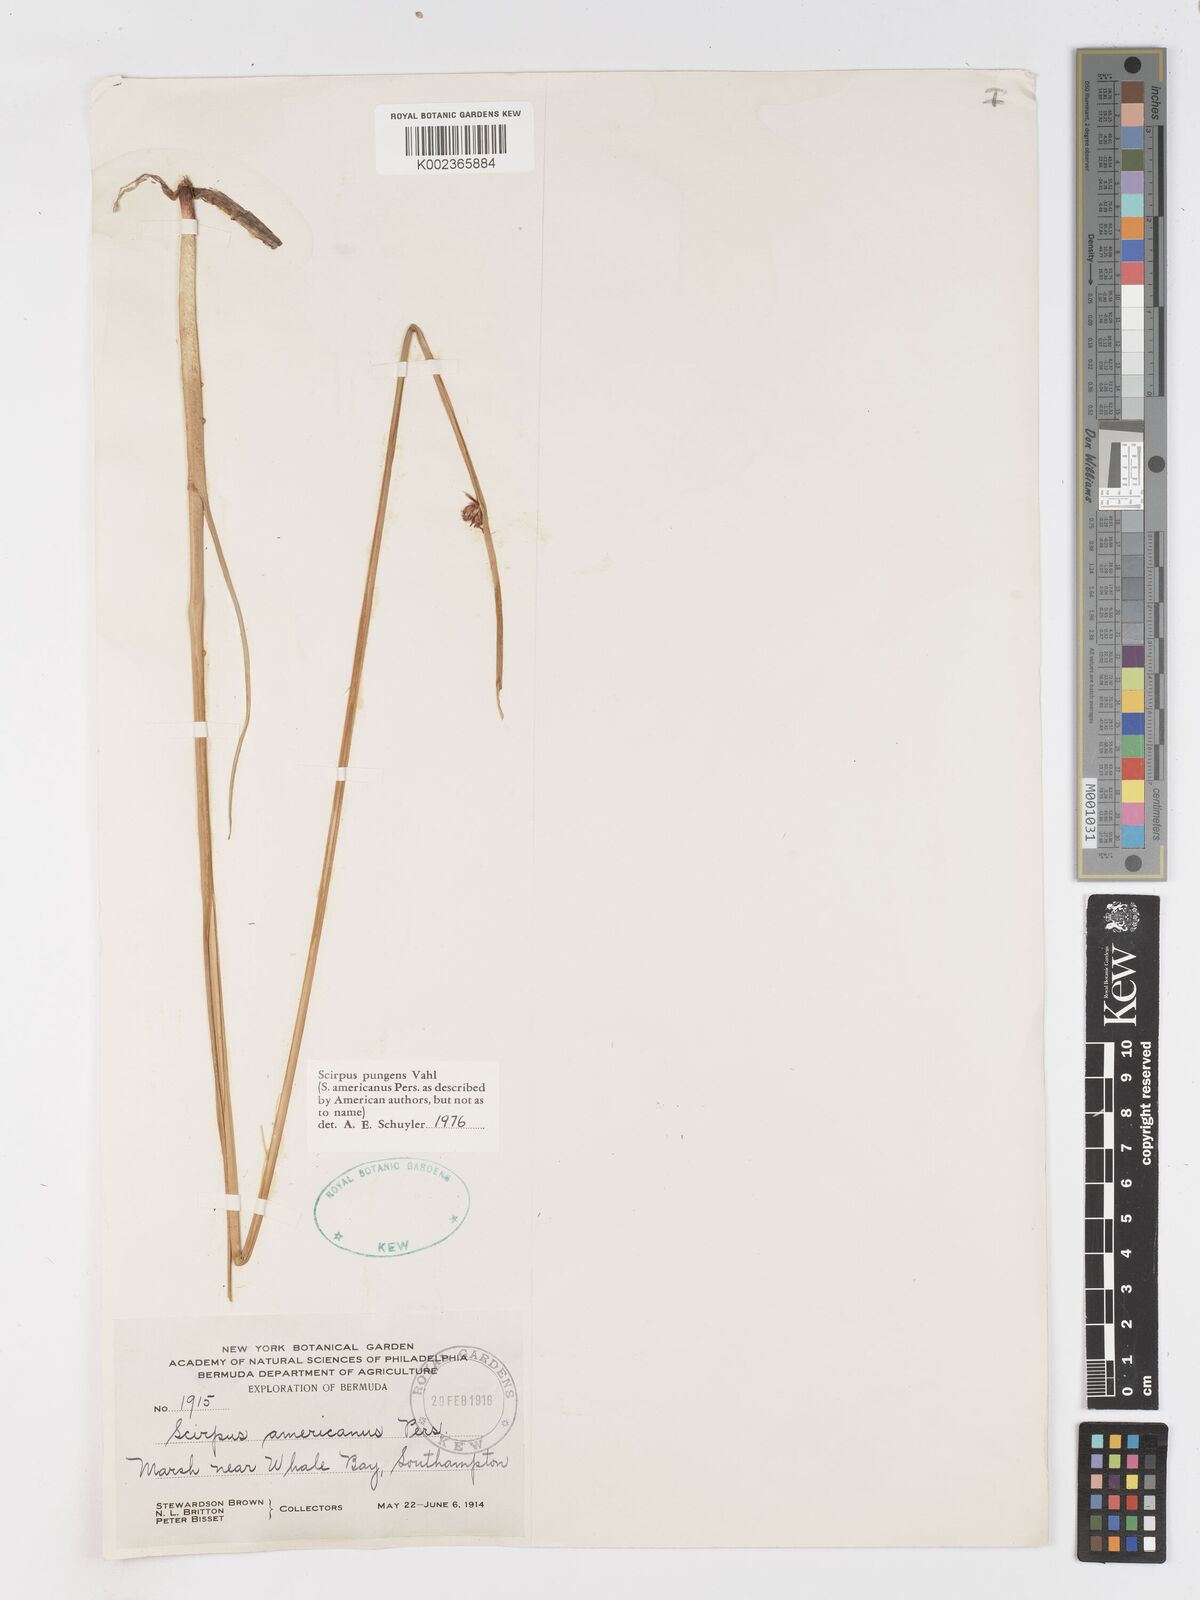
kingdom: Plantae
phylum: Tracheophyta
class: Liliopsida
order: Poales
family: Cyperaceae
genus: Schoenoplectus
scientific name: Schoenoplectus pungens
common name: Sharp club-rush
